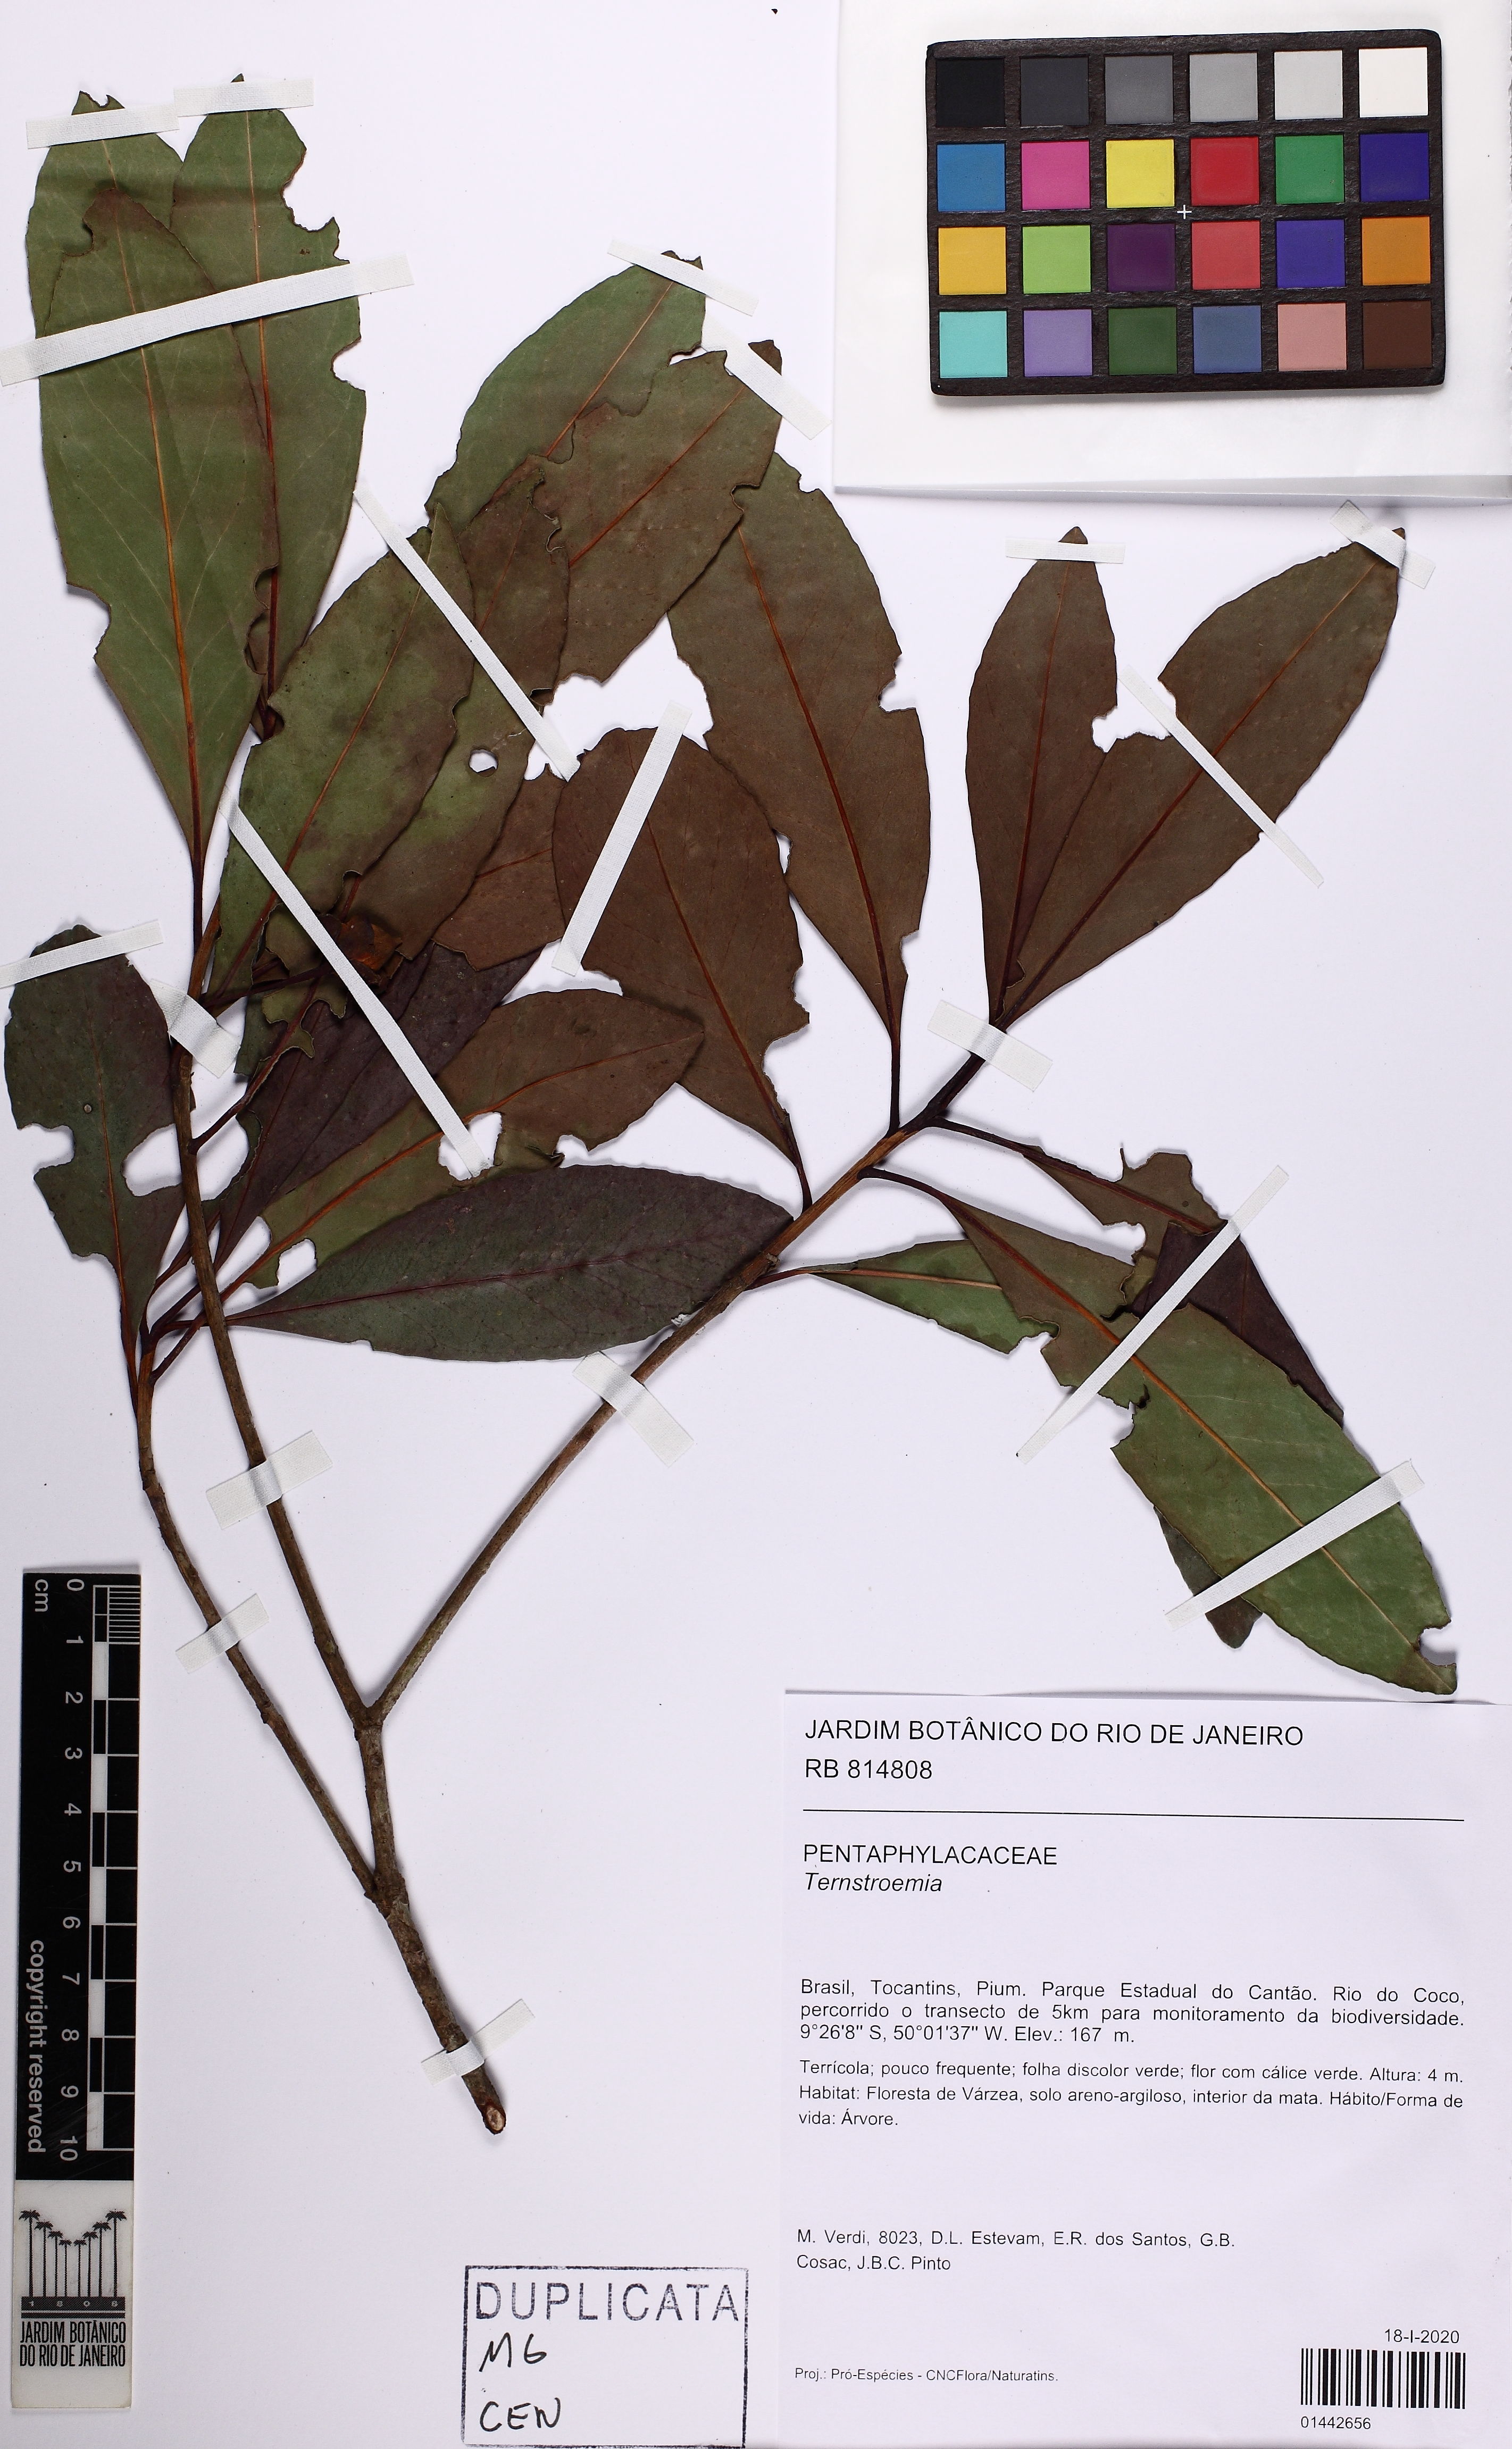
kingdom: Plantae
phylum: Tracheophyta
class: Magnoliopsida
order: Ericales
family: Pentaphylacaceae
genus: Ternstroemia
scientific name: Ternstroemia
